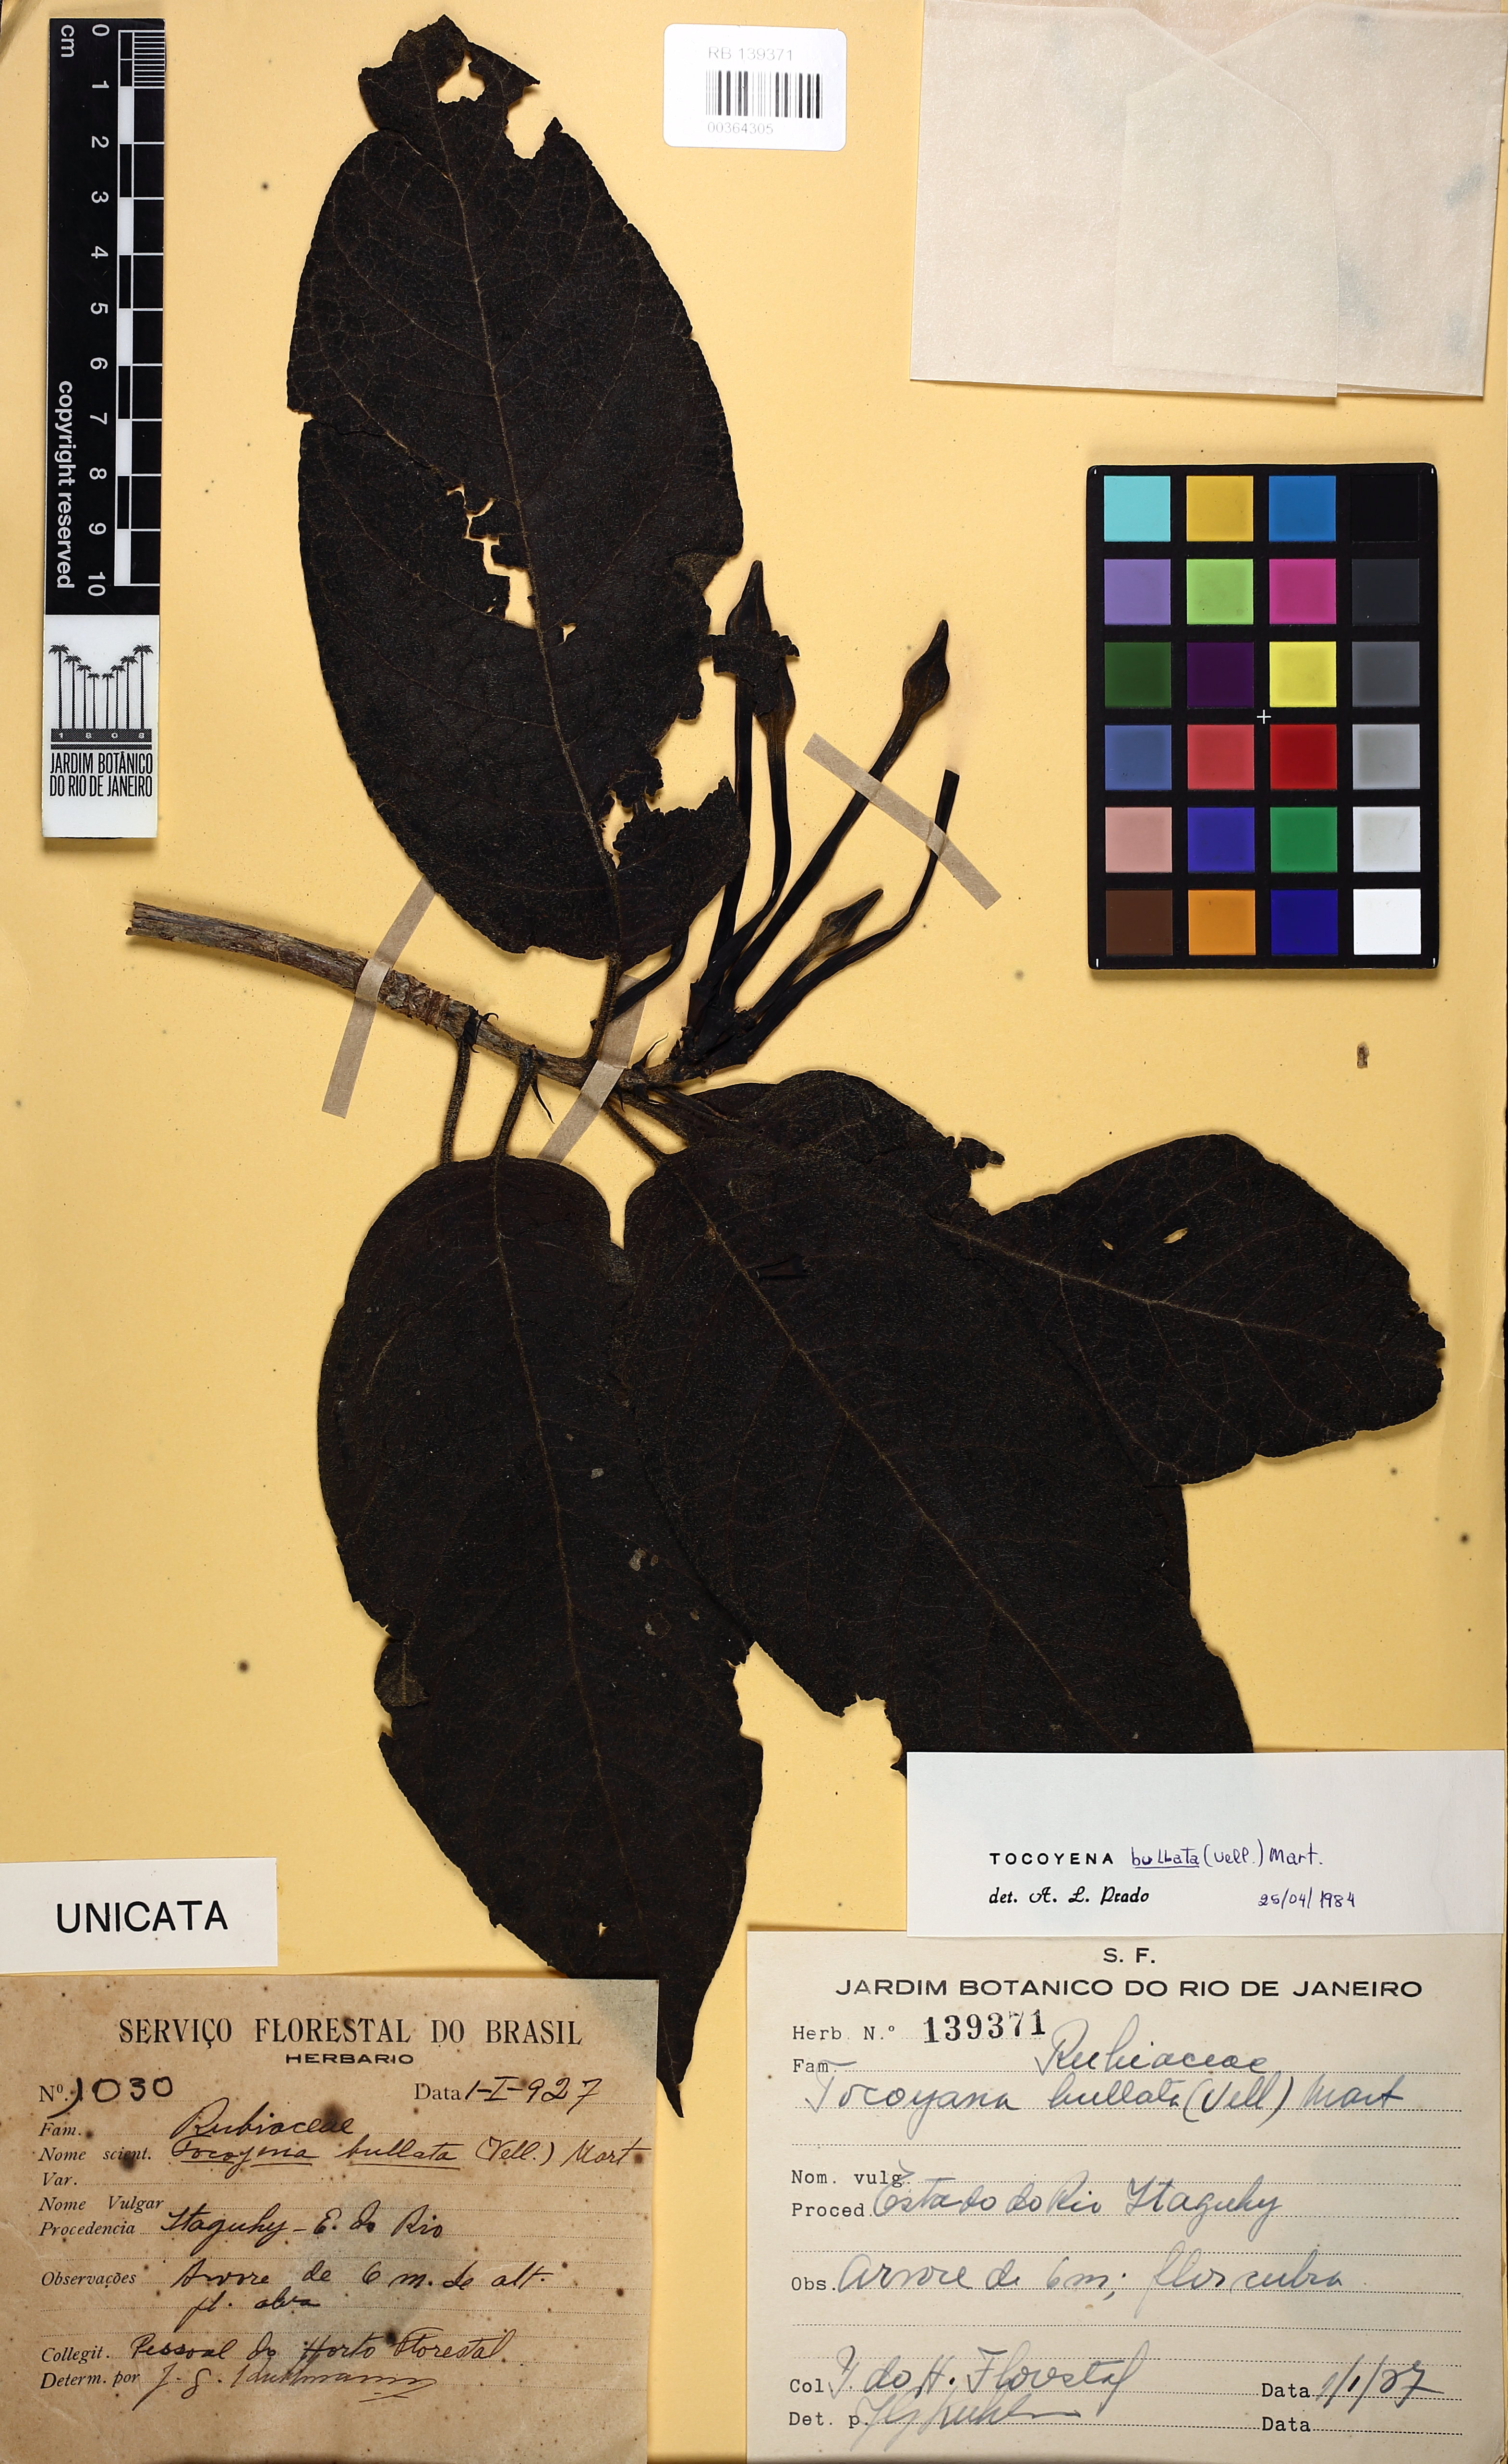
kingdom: Plantae
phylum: Tracheophyta
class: Magnoliopsida
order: Gentianales
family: Rubiaceae
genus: Tocoyena
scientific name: Tocoyena bullata
